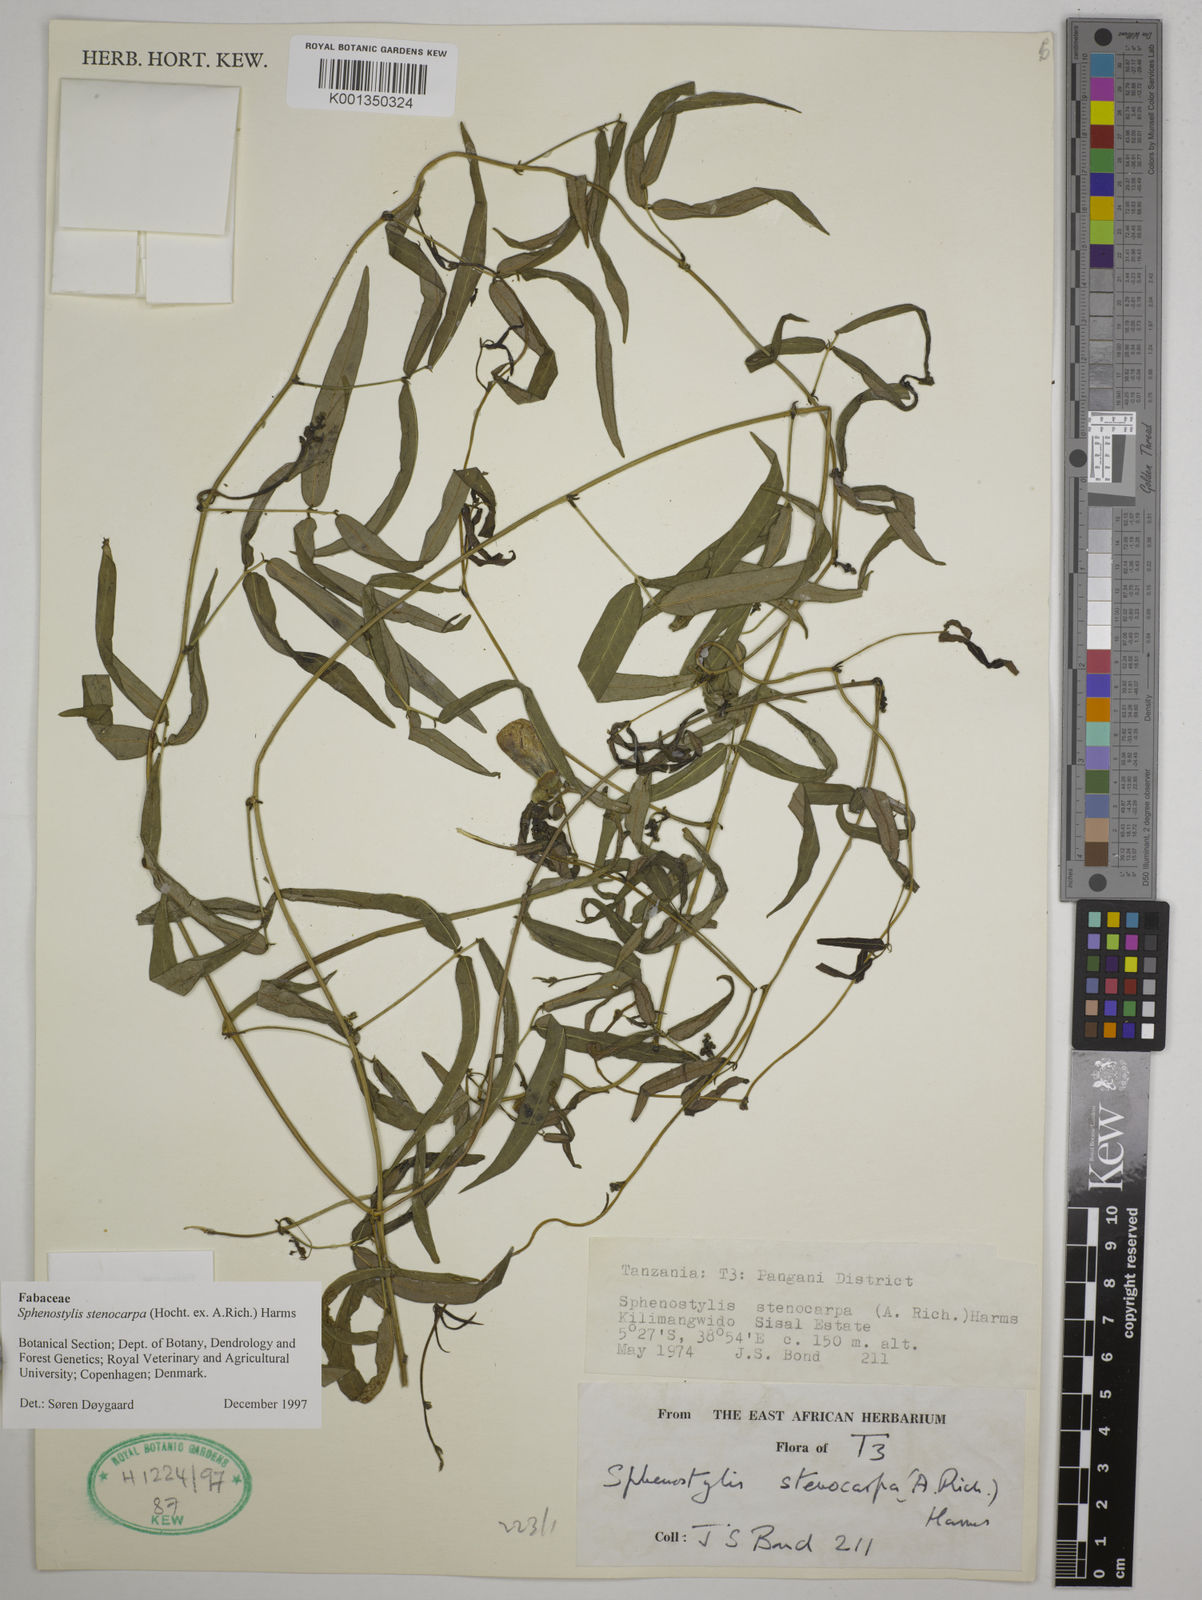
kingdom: Plantae
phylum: Tracheophyta
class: Magnoliopsida
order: Fabales
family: Fabaceae
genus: Sphenostylis
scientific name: Sphenostylis stenocarpa
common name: Yam-pea
